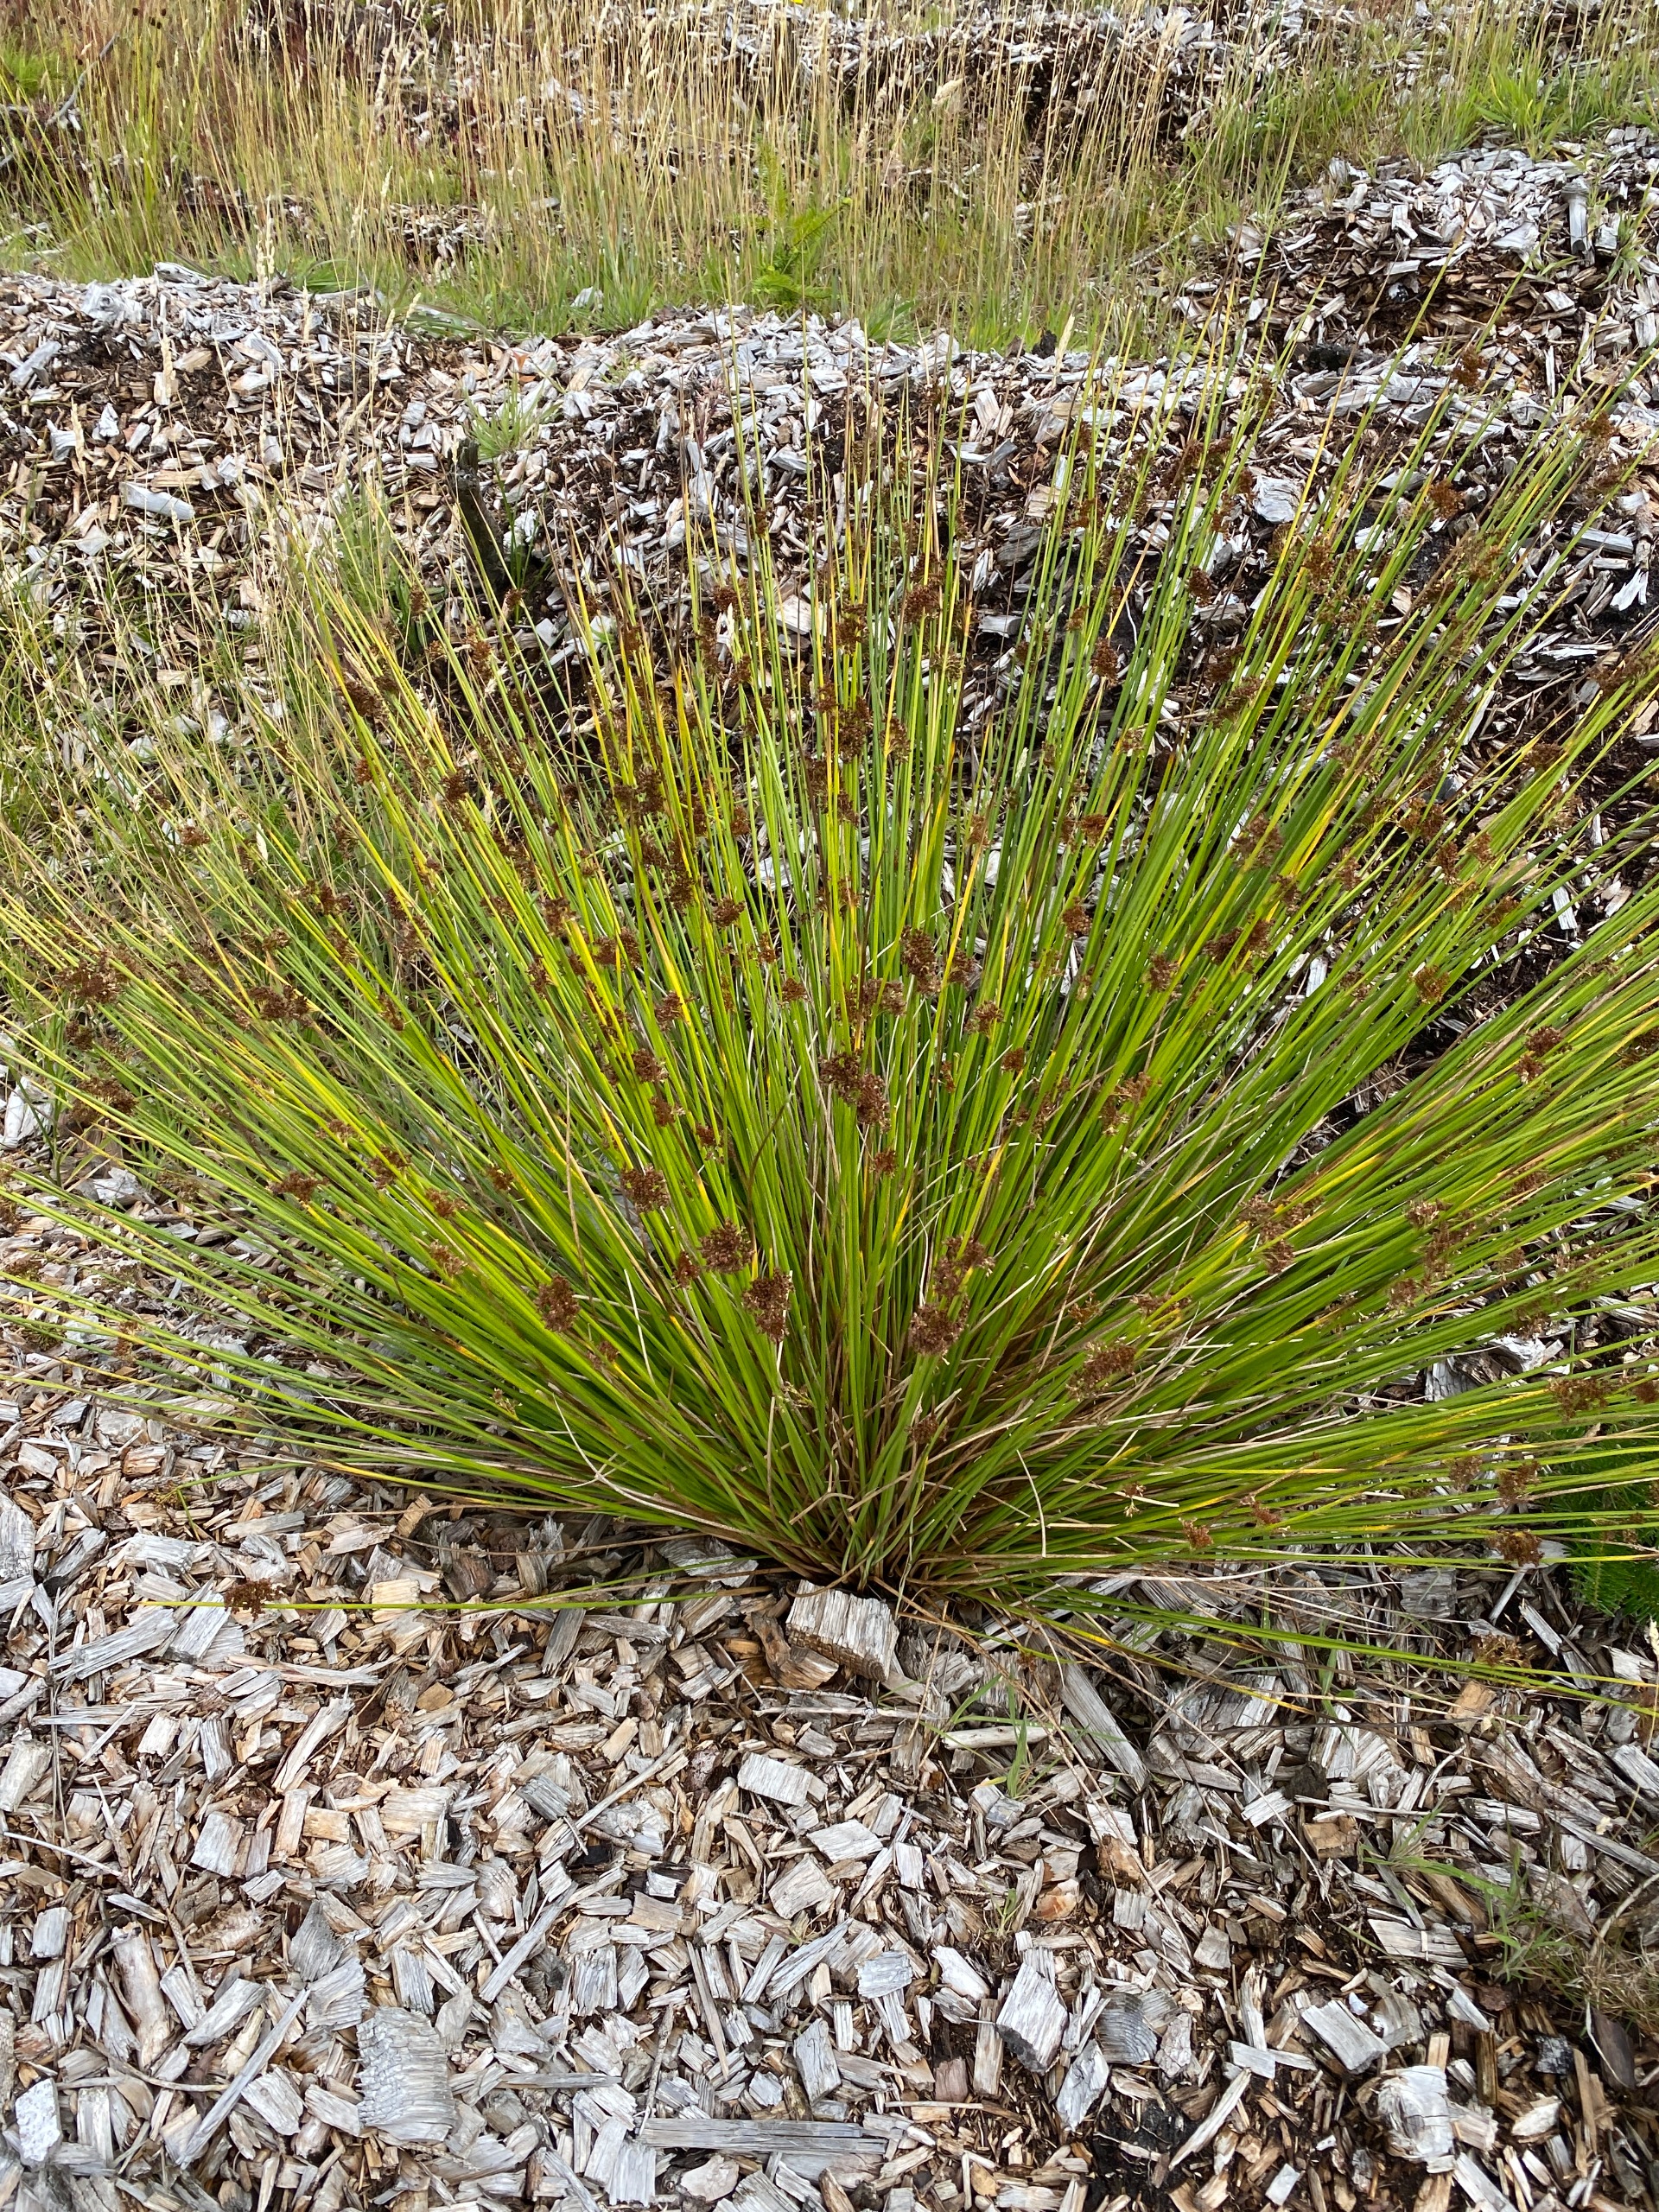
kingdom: Plantae
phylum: Tracheophyta
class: Liliopsida
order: Poales
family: Juncaceae
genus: Juncus
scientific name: Juncus effusus
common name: Lyse-siv
